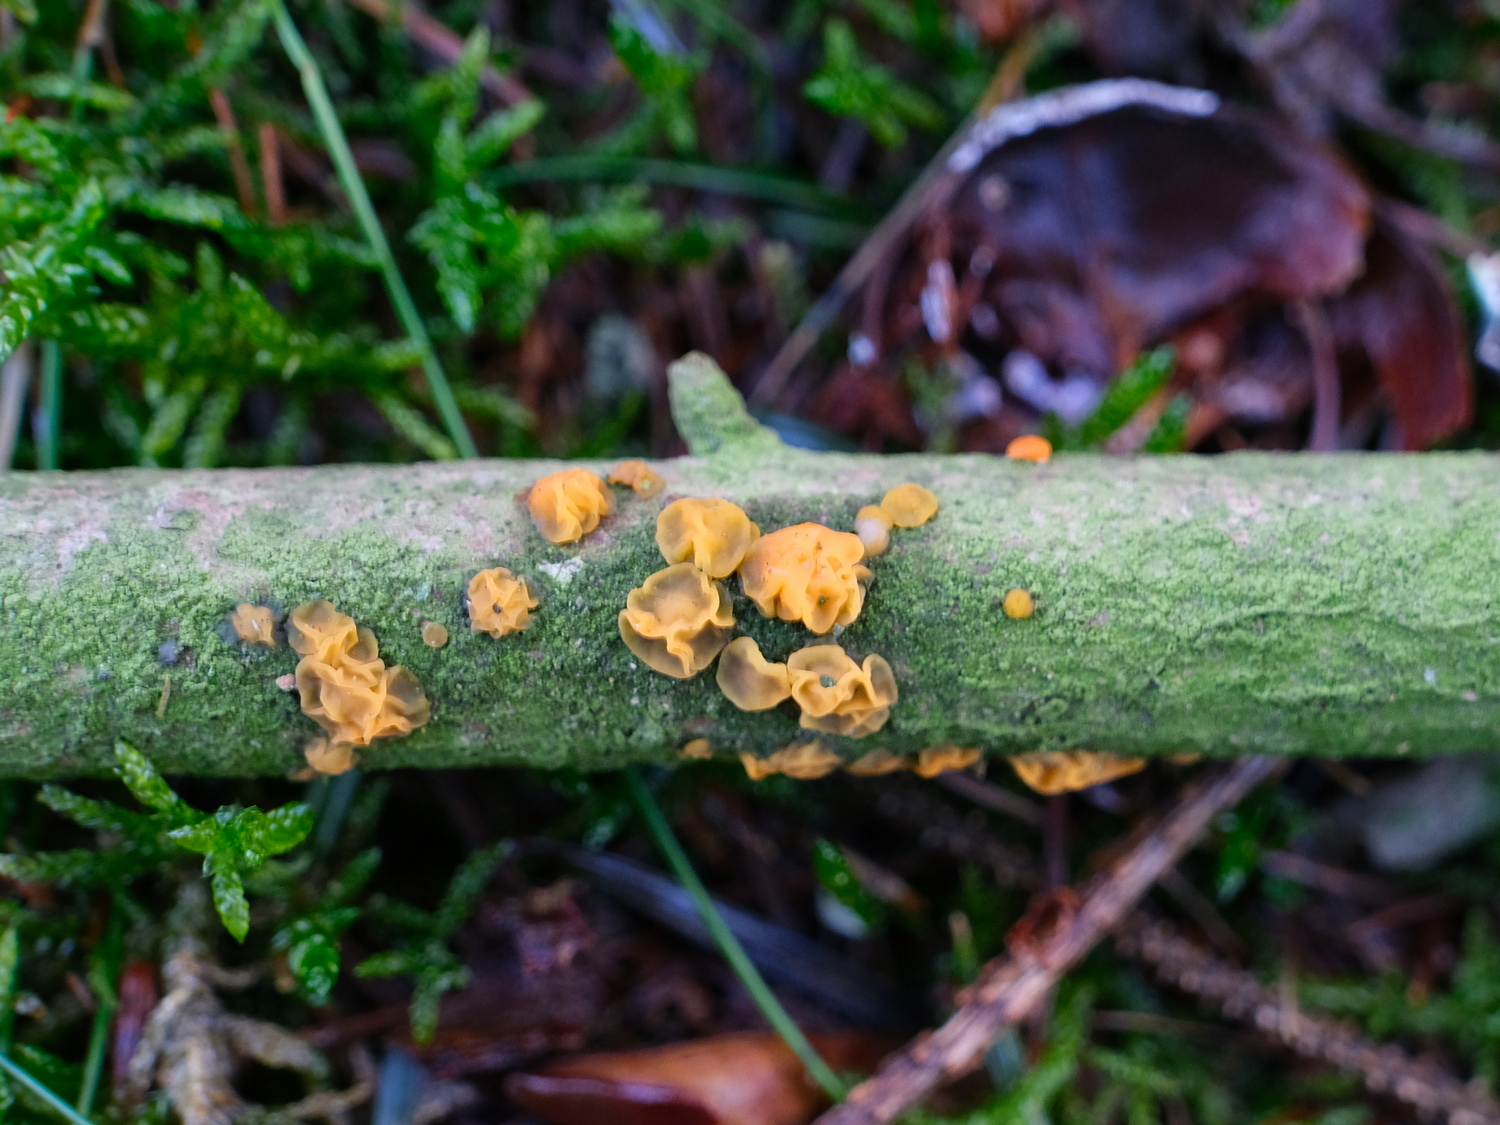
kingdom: Fungi
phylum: Basidiomycota
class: Dacrymycetes
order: Dacrymycetales
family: Dacrymycetaceae
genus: Dacrymyces
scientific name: Dacrymyces
